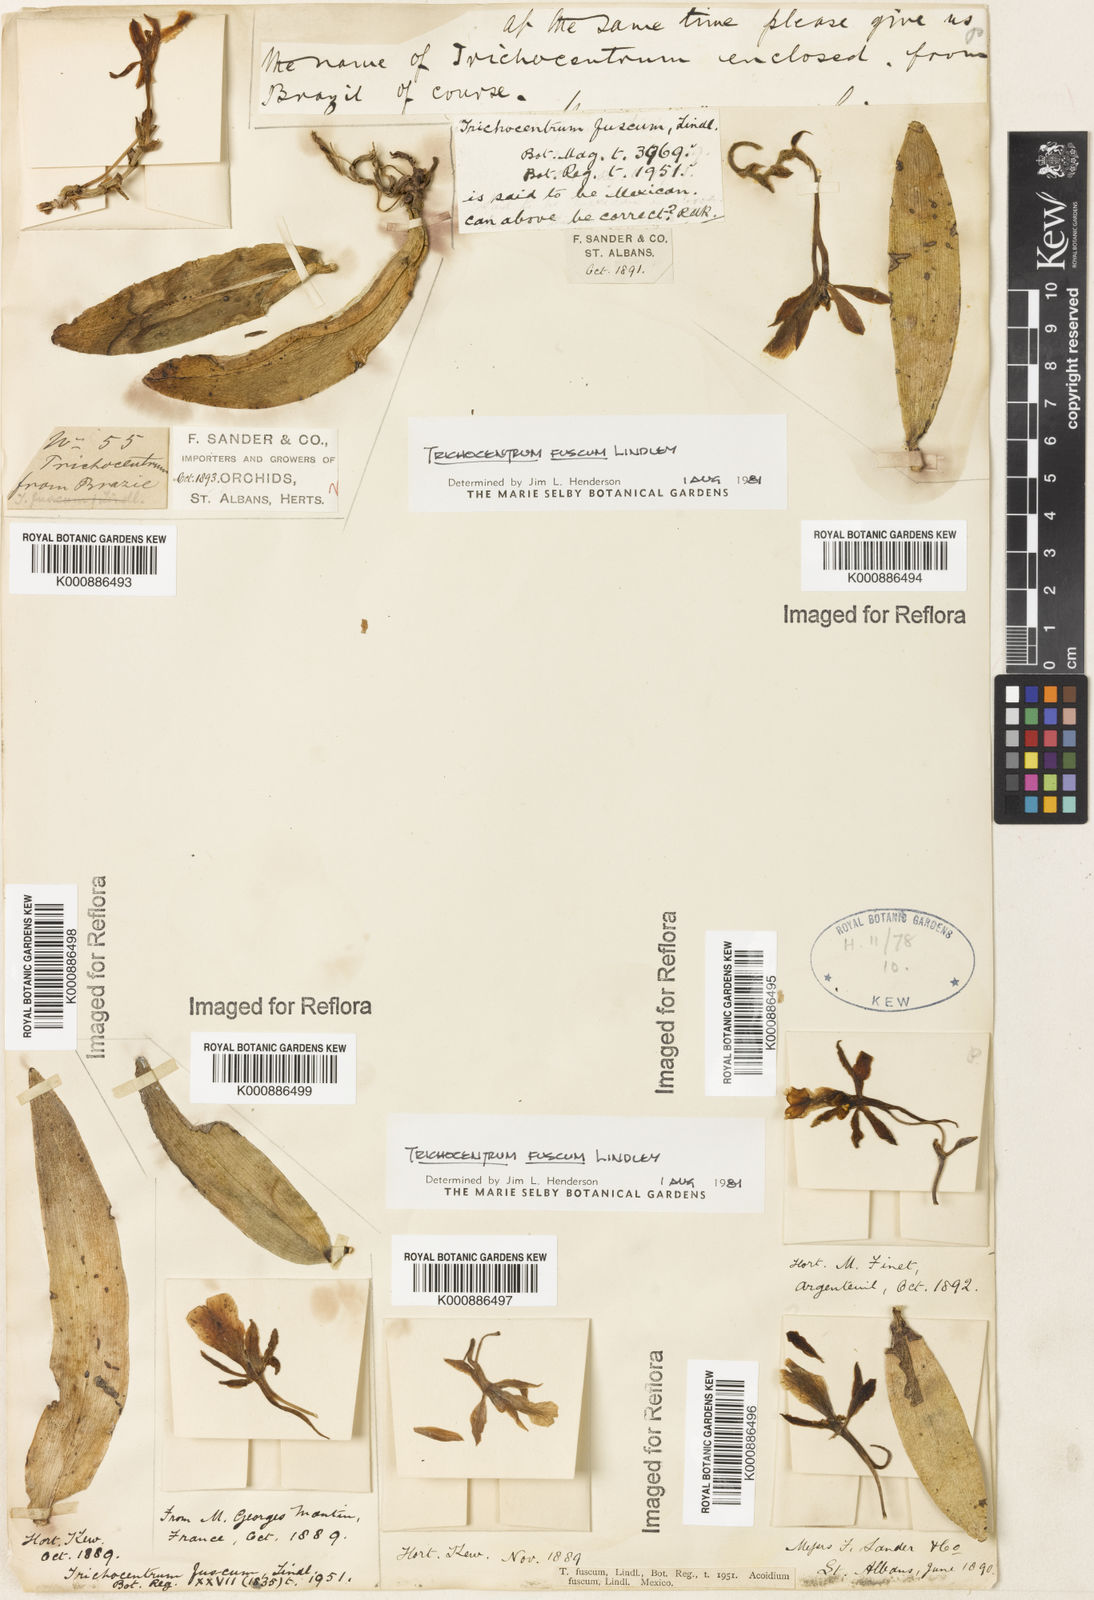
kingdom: Plantae
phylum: Tracheophyta
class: Liliopsida
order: Asparagales
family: Orchidaceae
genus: Trichocentrum
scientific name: Trichocentrum fuscum
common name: Mule-ear orchid
